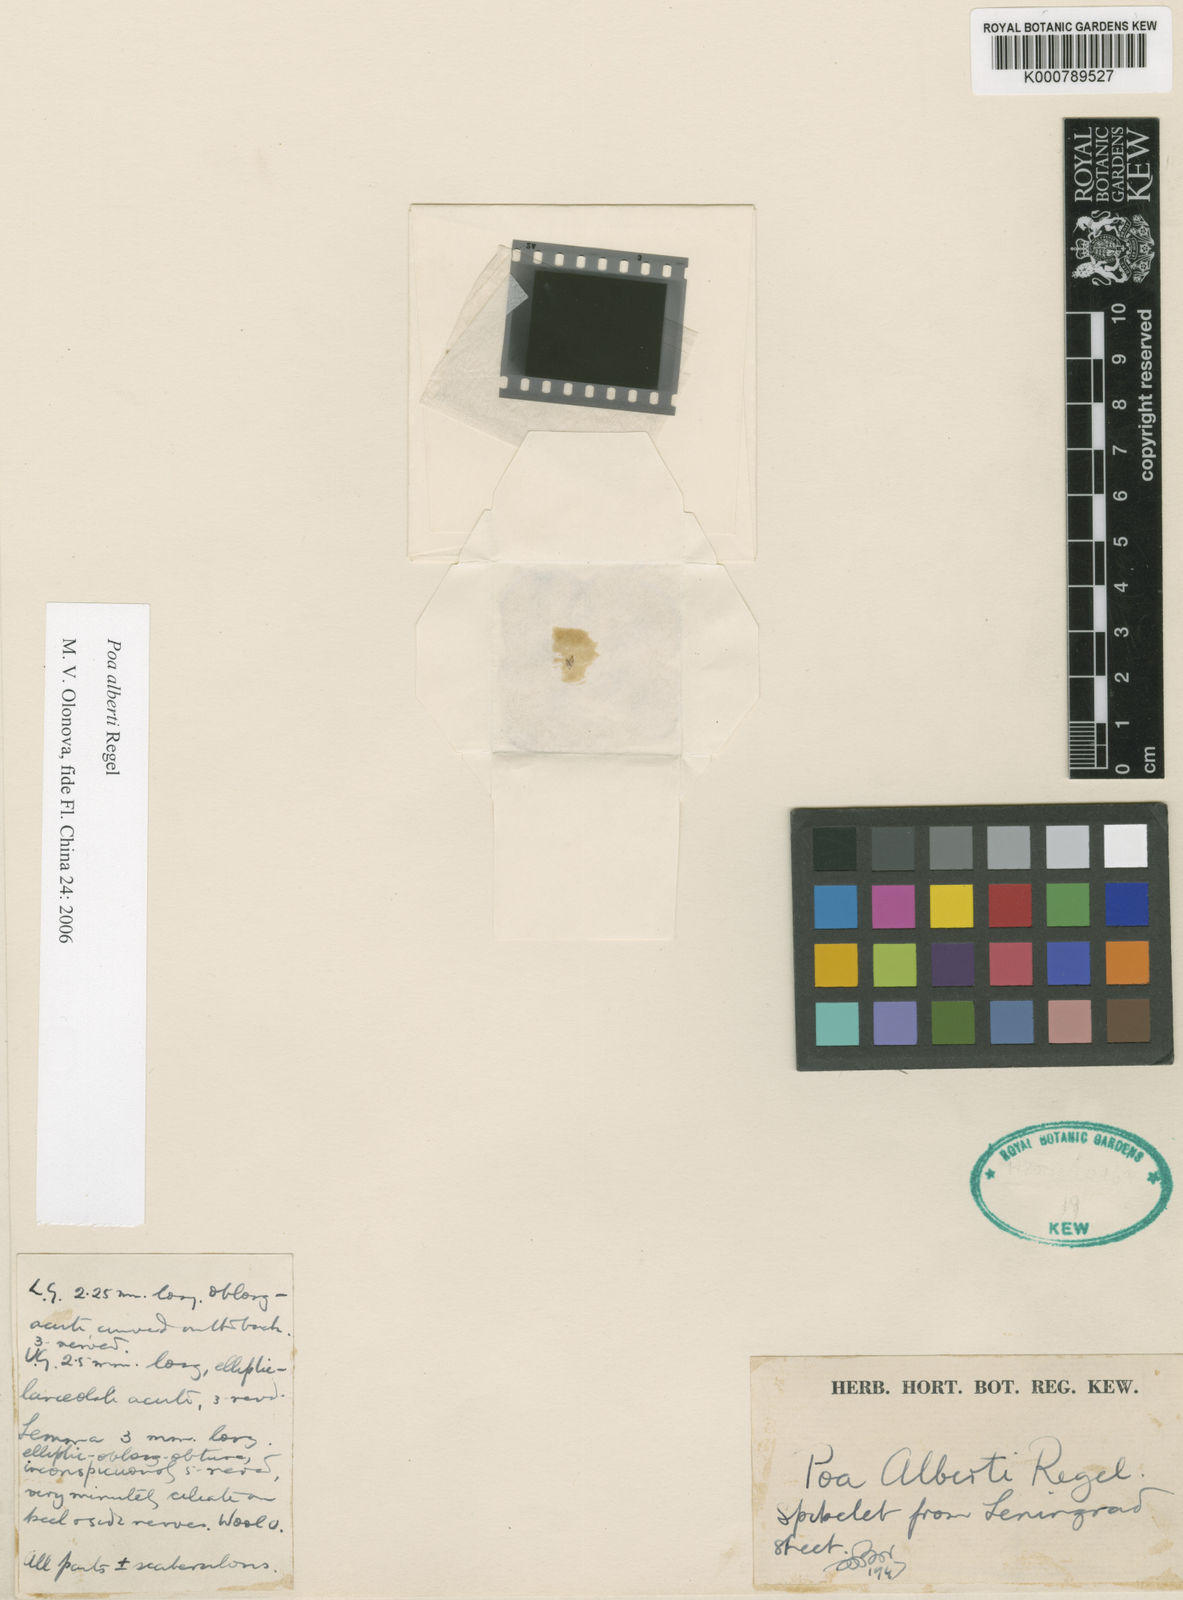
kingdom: Plantae
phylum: Tracheophyta
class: Liliopsida
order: Poales
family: Poaceae
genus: Poa
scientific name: Poa alberti
